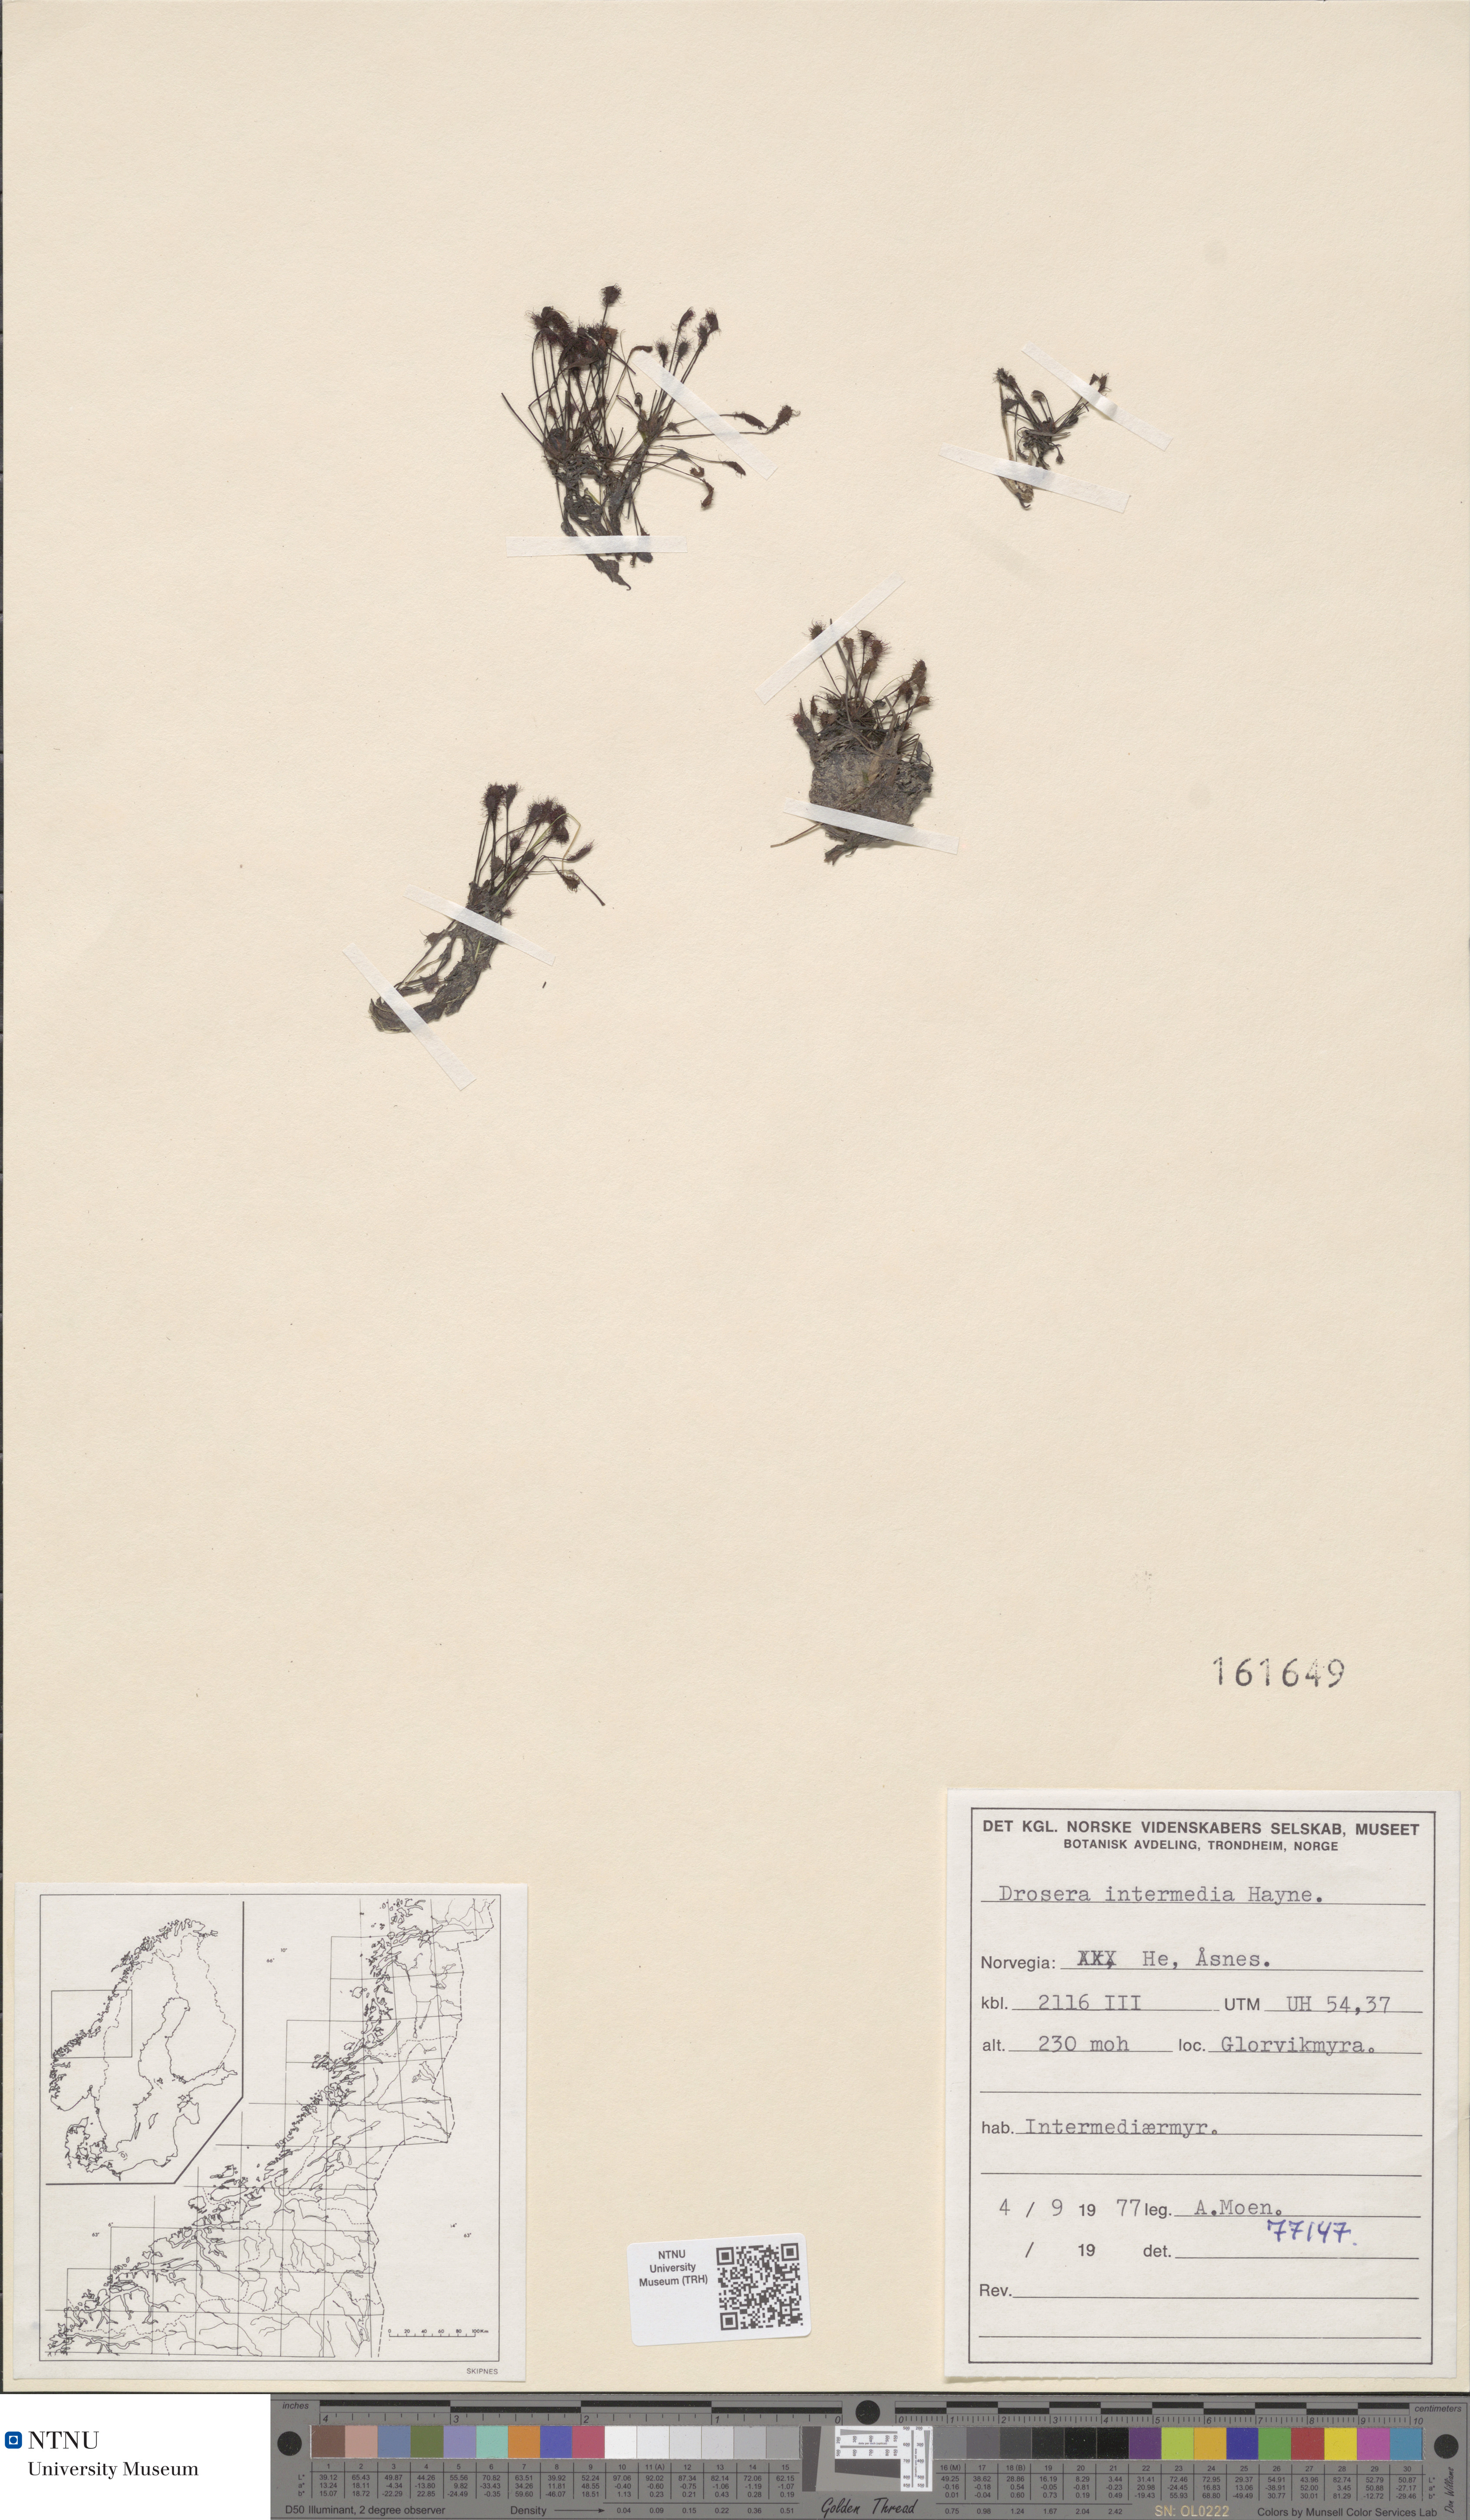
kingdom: Plantae
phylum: Tracheophyta
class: Magnoliopsida
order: Caryophyllales
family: Droseraceae
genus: Drosera
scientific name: Drosera intermedia
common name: Oblong-leaved sundew
